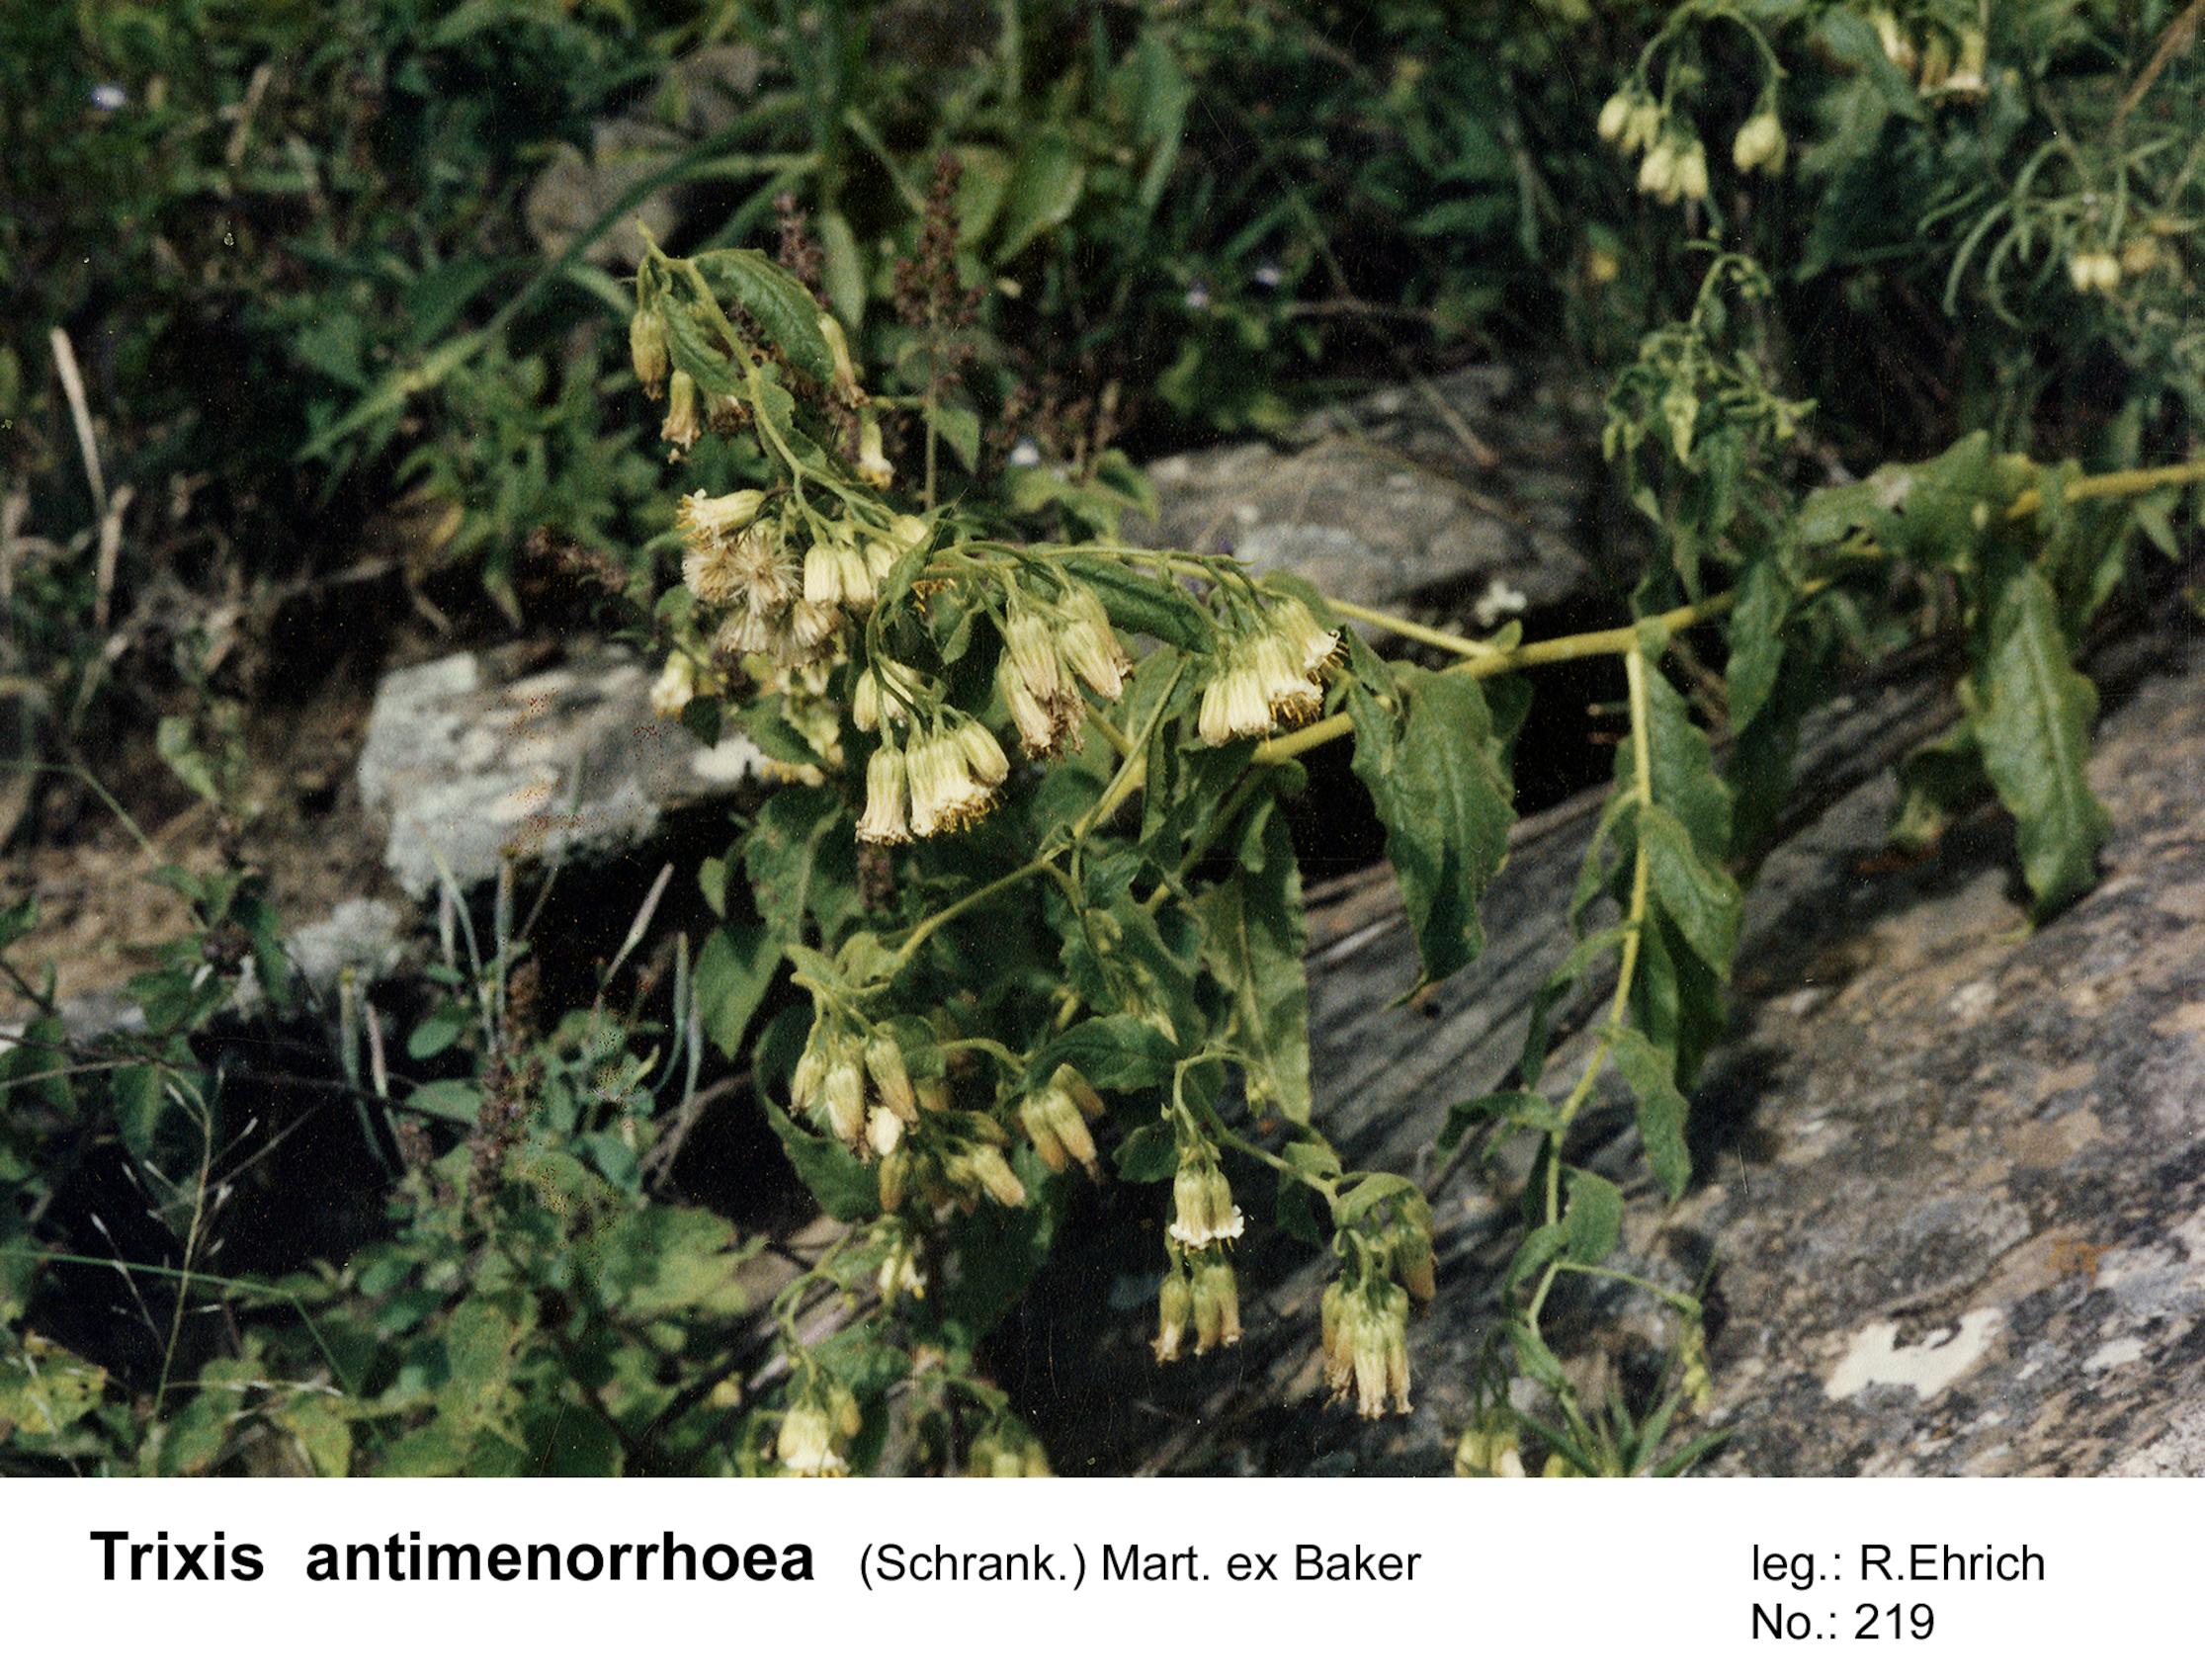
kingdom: Plantae
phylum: Tracheophyta
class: Magnoliopsida
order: Asterales
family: Asteraceae
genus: Trixis
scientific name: Trixis divaricata
